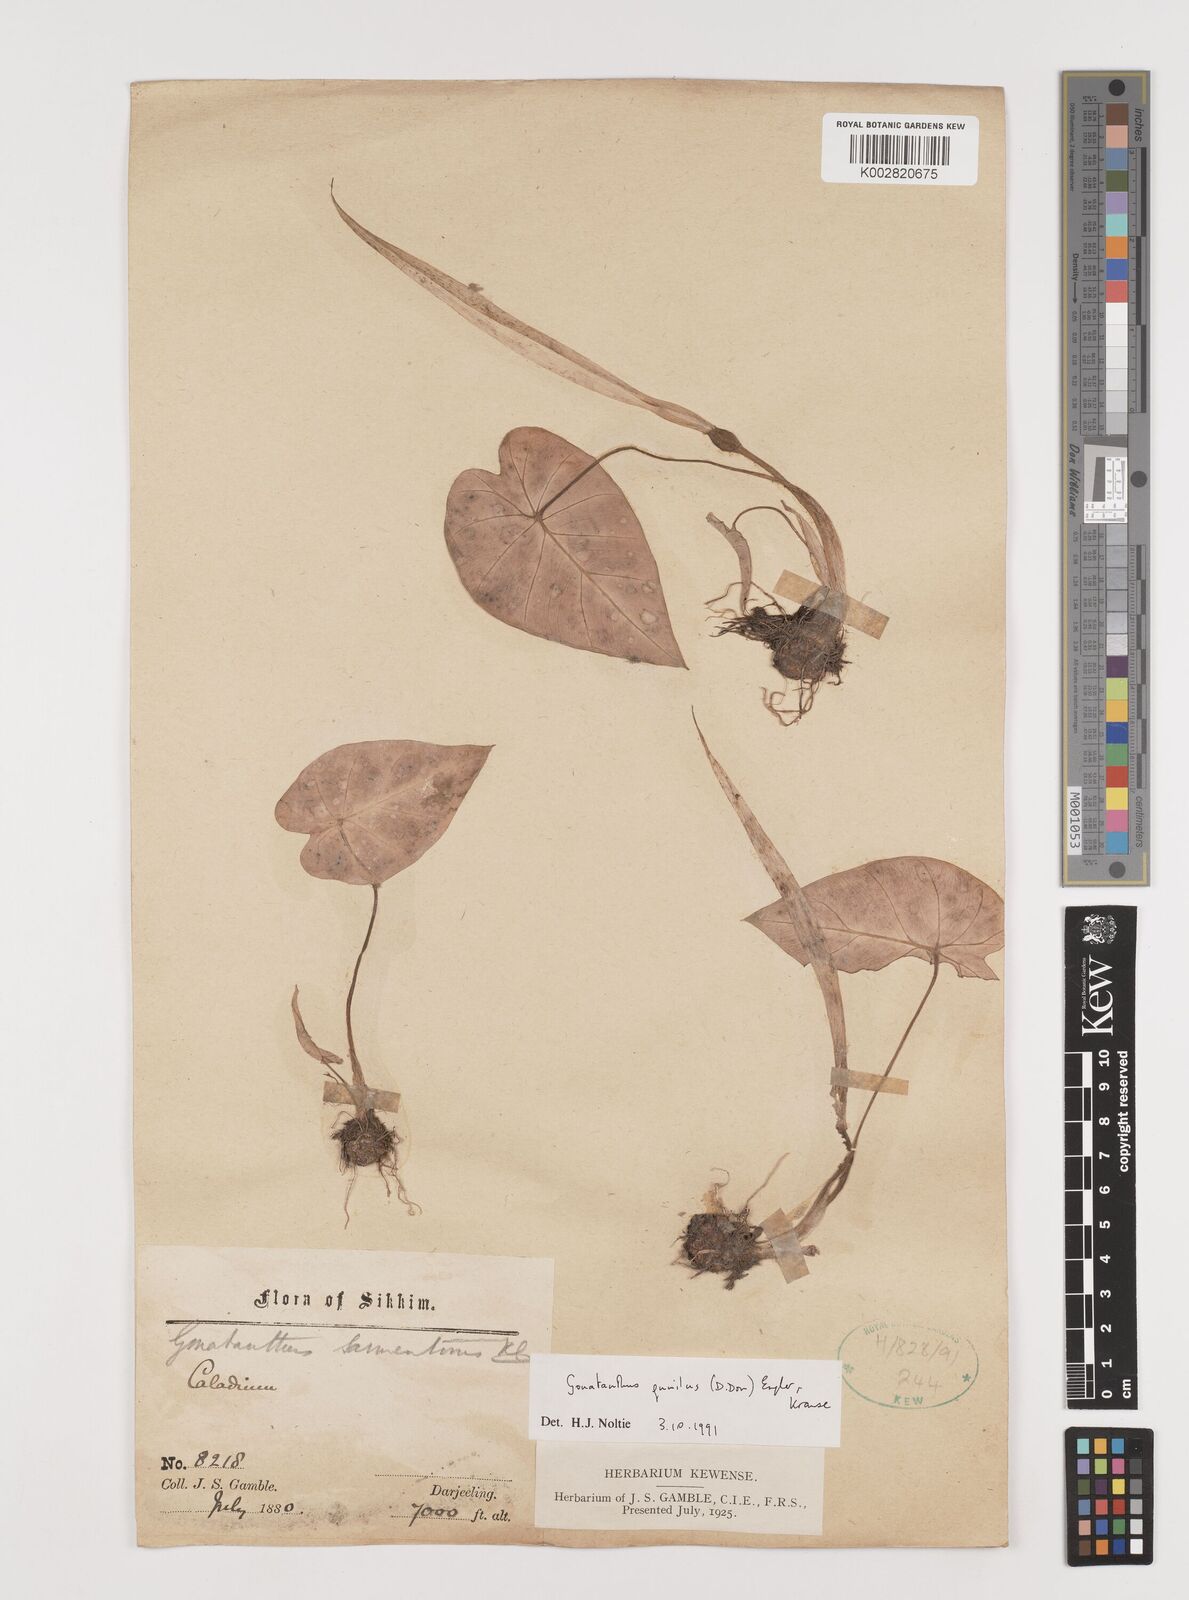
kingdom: Plantae
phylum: Tracheophyta
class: Liliopsida
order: Alismatales
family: Araceae
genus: Remusatia
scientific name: Remusatia pumila
